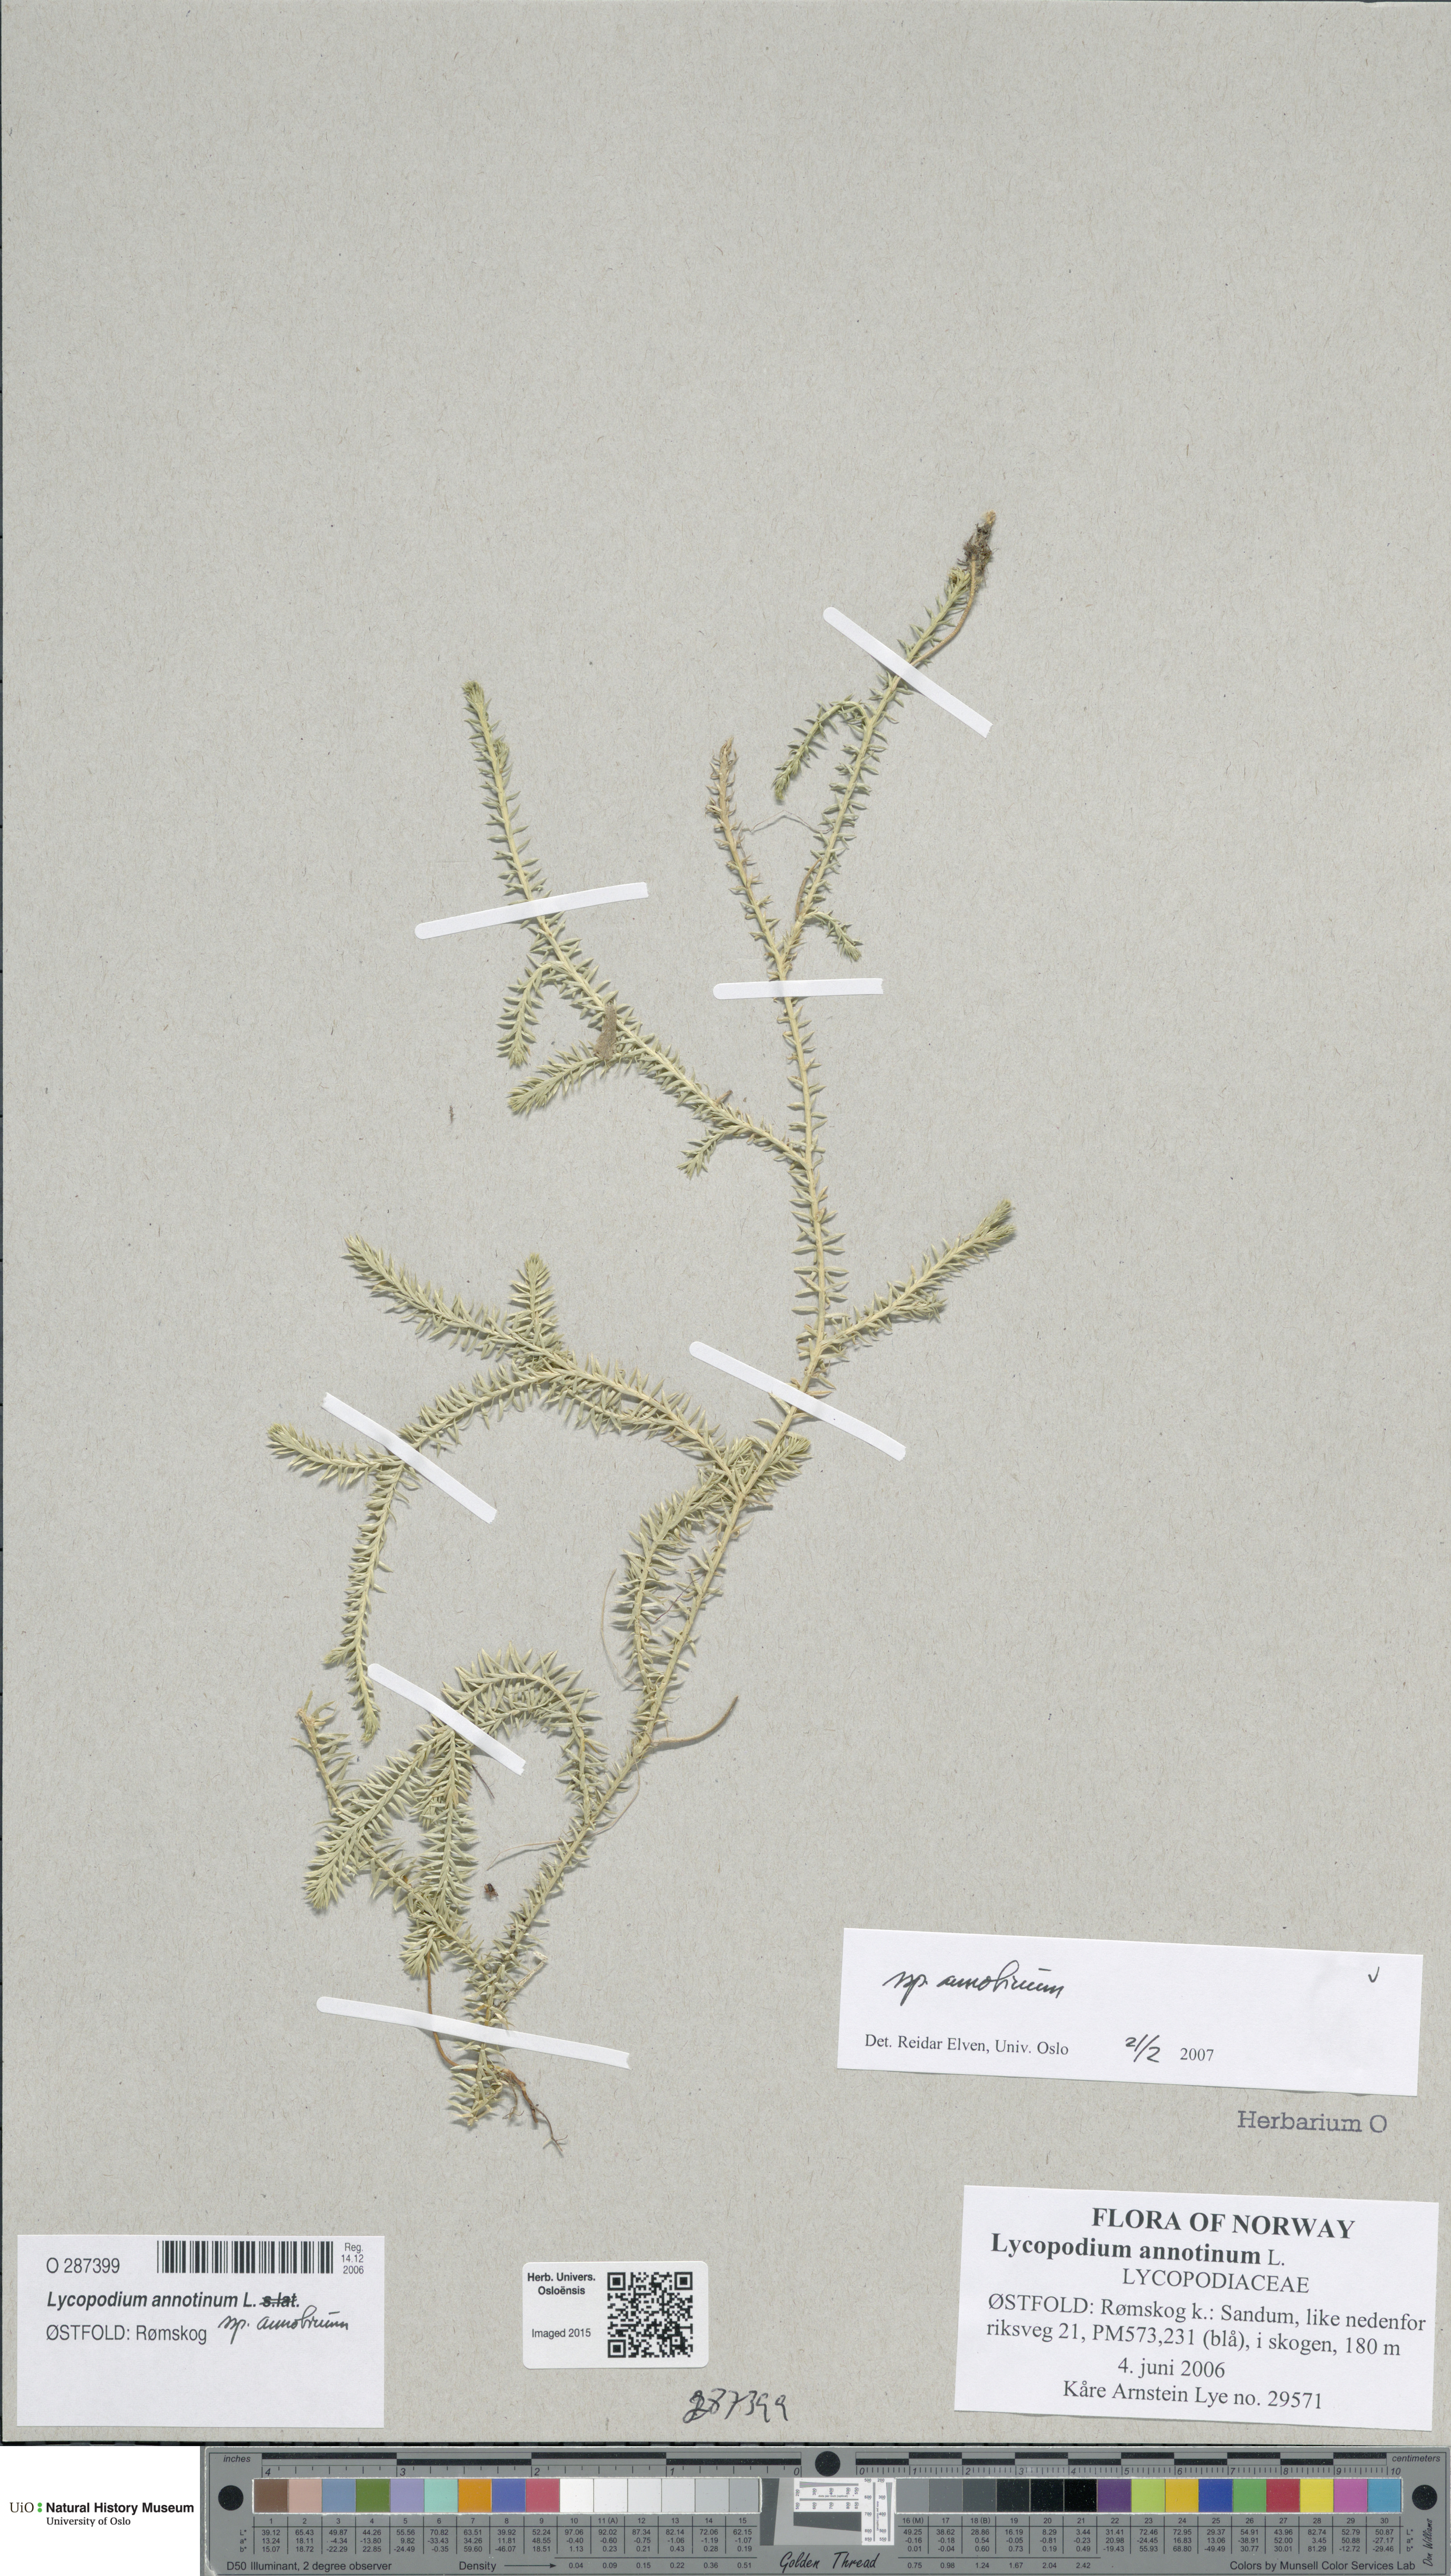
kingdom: Plantae
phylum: Tracheophyta
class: Lycopodiopsida
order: Lycopodiales
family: Lycopodiaceae
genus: Spinulum
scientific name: Spinulum annotinum
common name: Interrupted club-moss
